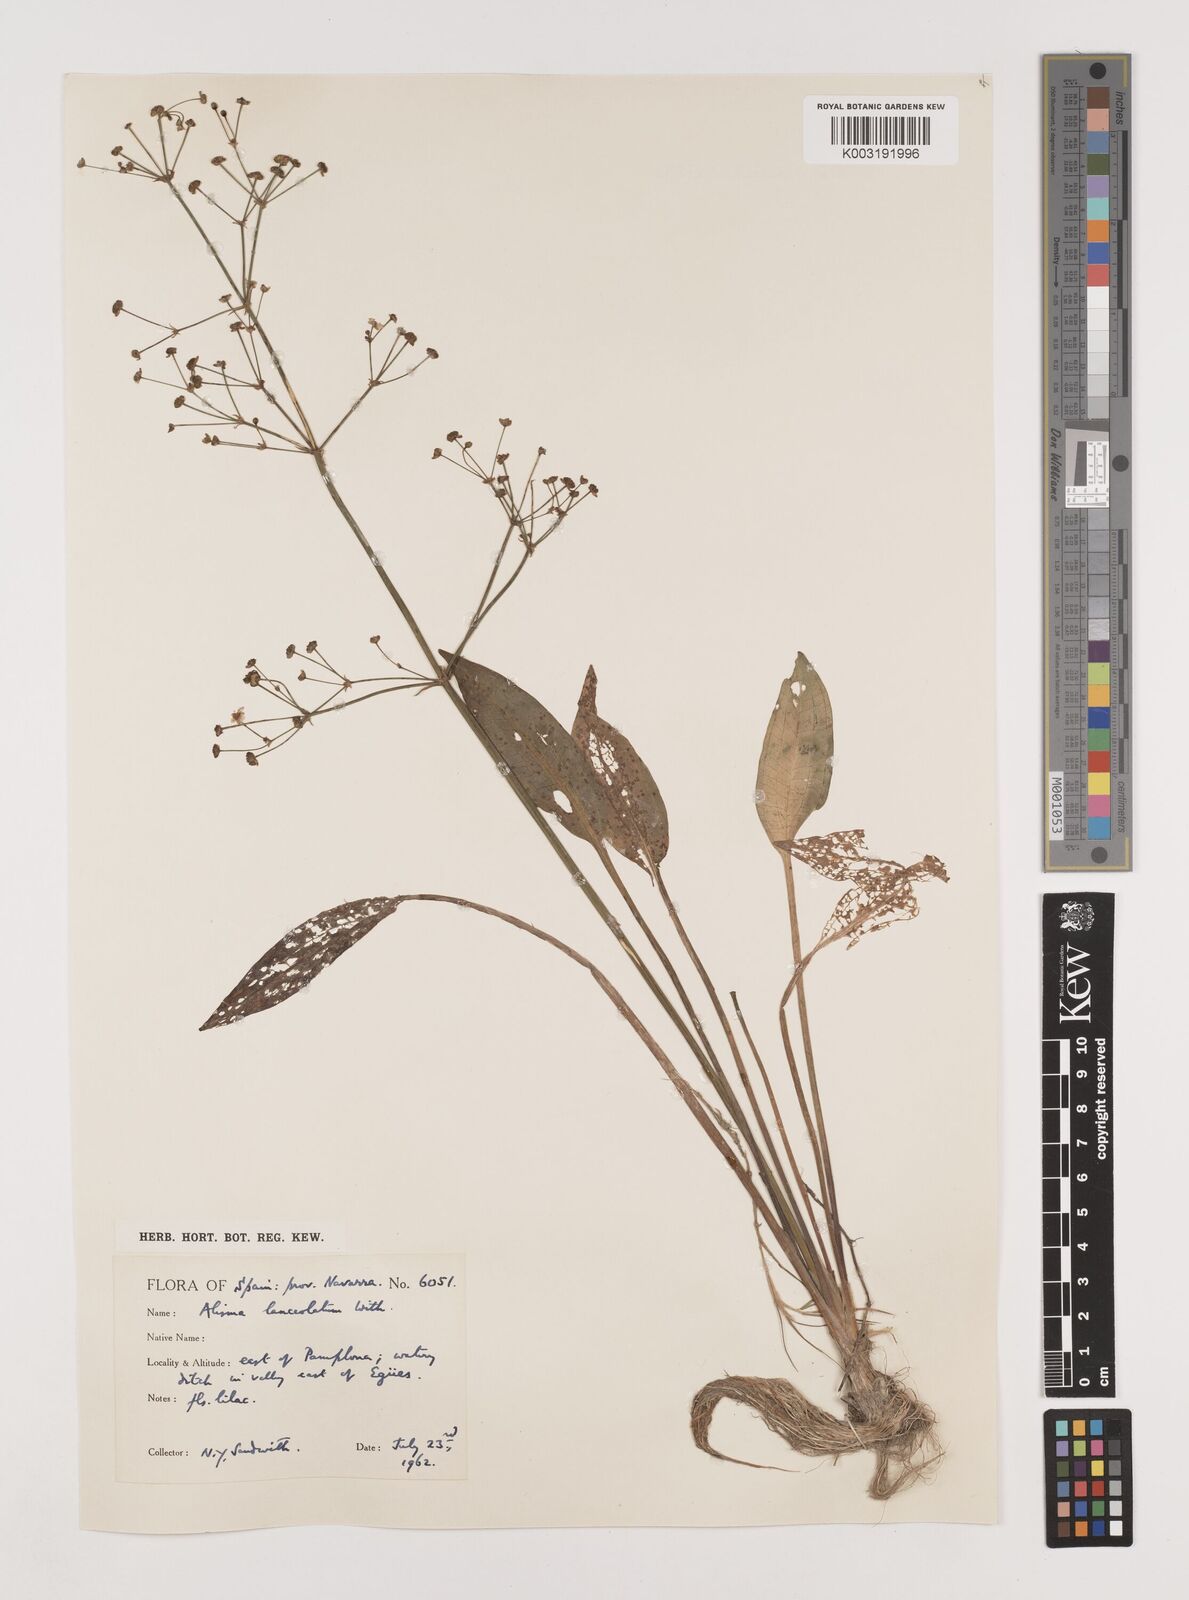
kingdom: Plantae
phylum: Tracheophyta
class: Liliopsida
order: Alismatales
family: Alismataceae
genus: Alisma
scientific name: Alisma lanceolatum
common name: Narrow-leaved water-plantain
